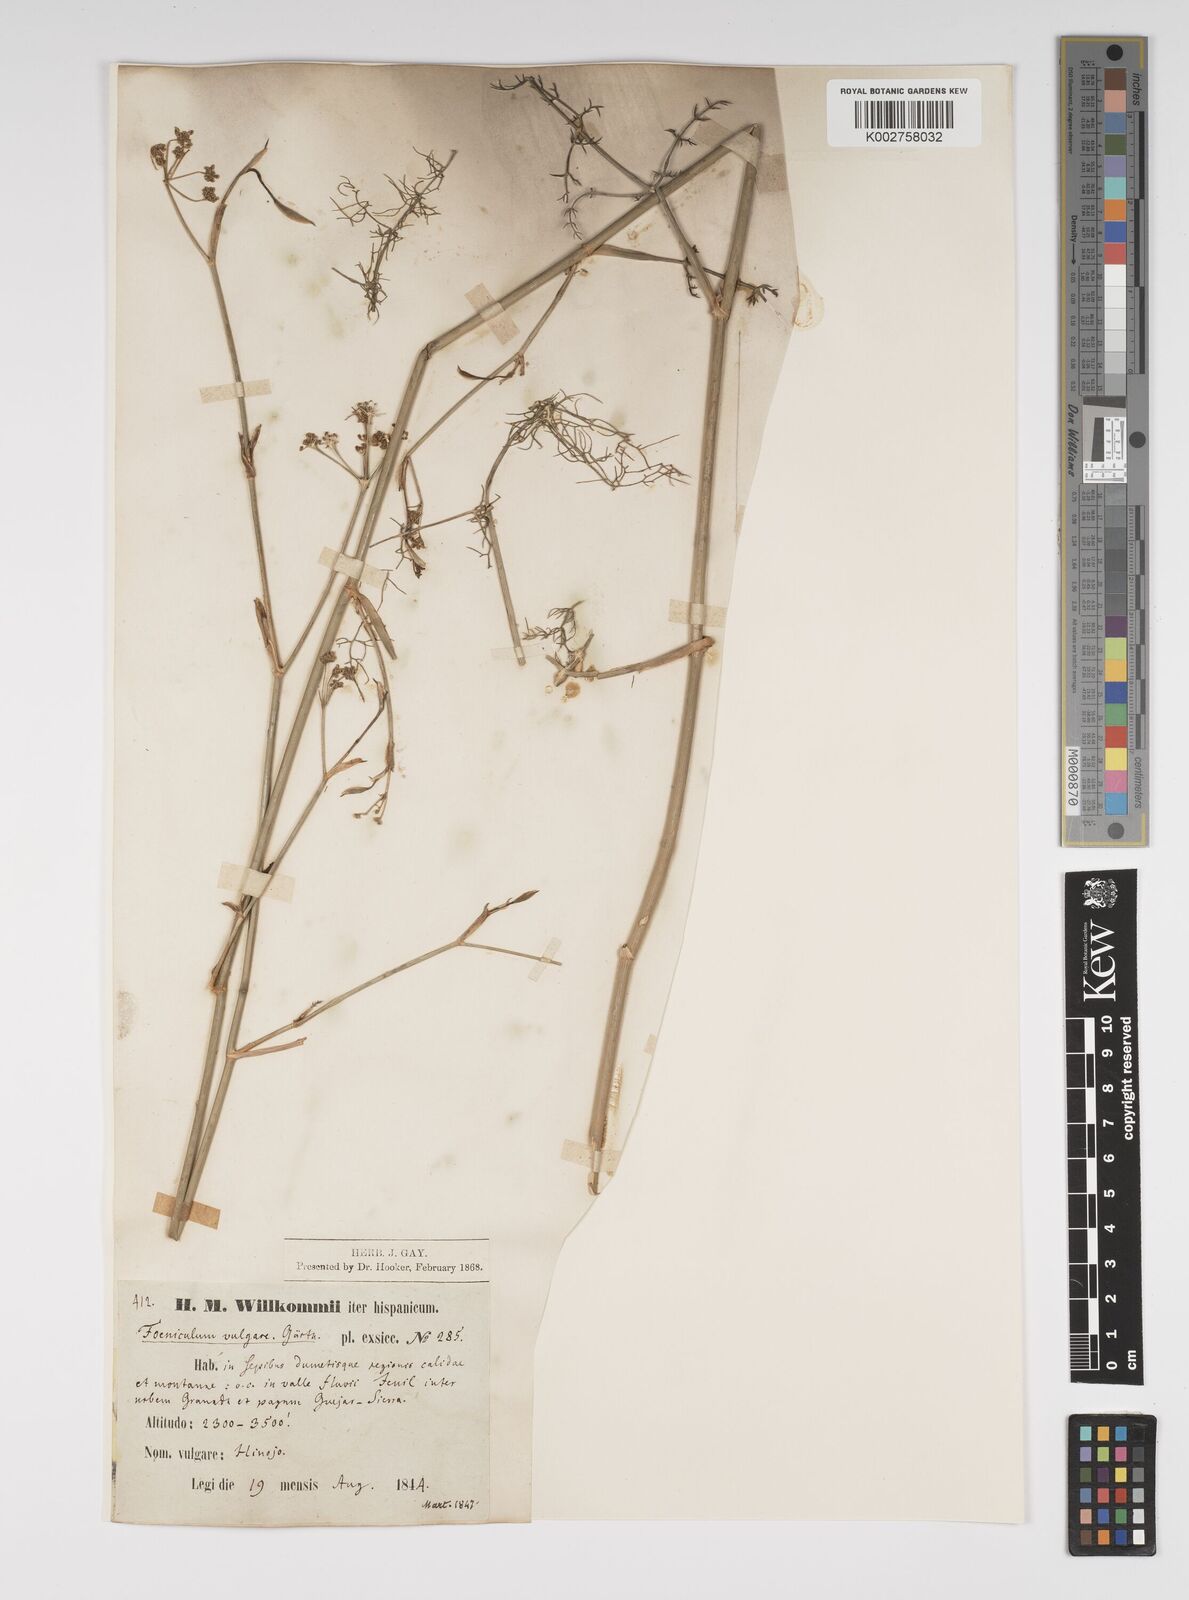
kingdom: Plantae
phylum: Tracheophyta
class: Magnoliopsida
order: Apiales
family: Apiaceae
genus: Foeniculum
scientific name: Foeniculum vulgare
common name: Fennel
